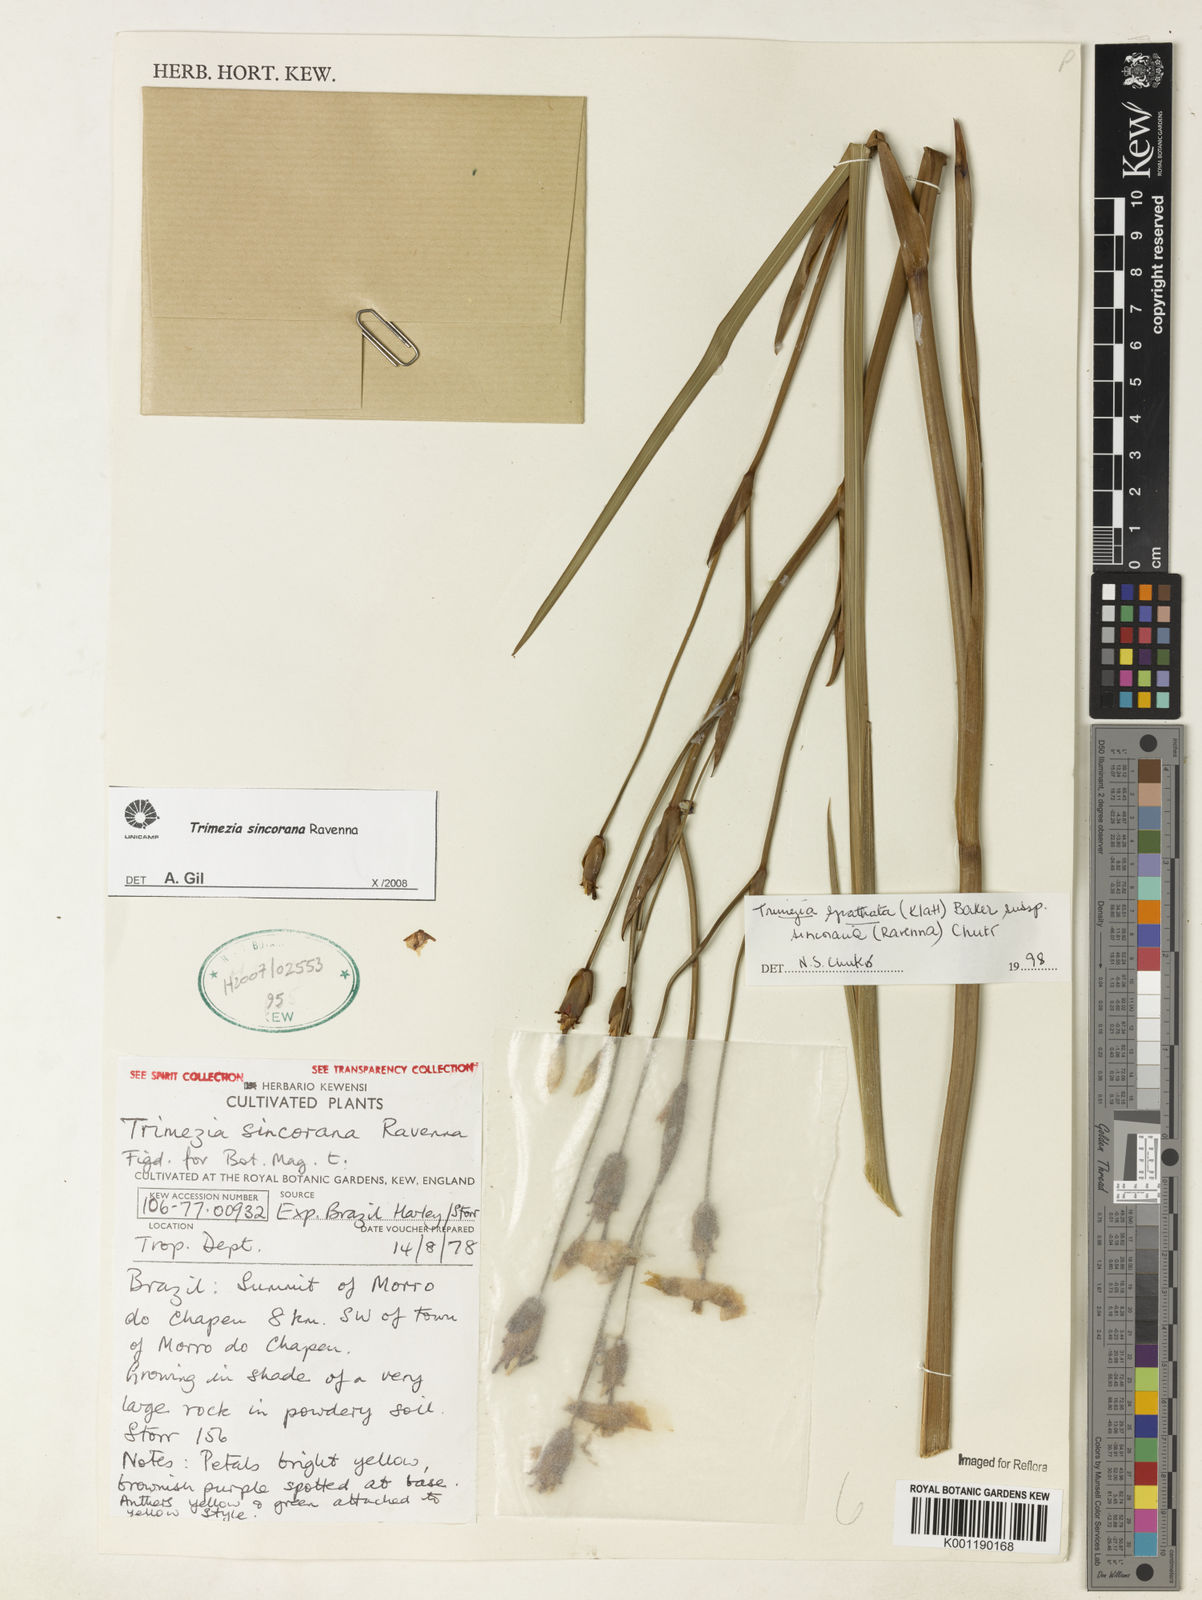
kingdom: Plantae
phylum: Tracheophyta
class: Liliopsida
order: Asparagales
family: Iridaceae
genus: Trimezia
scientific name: Trimezia spathata
